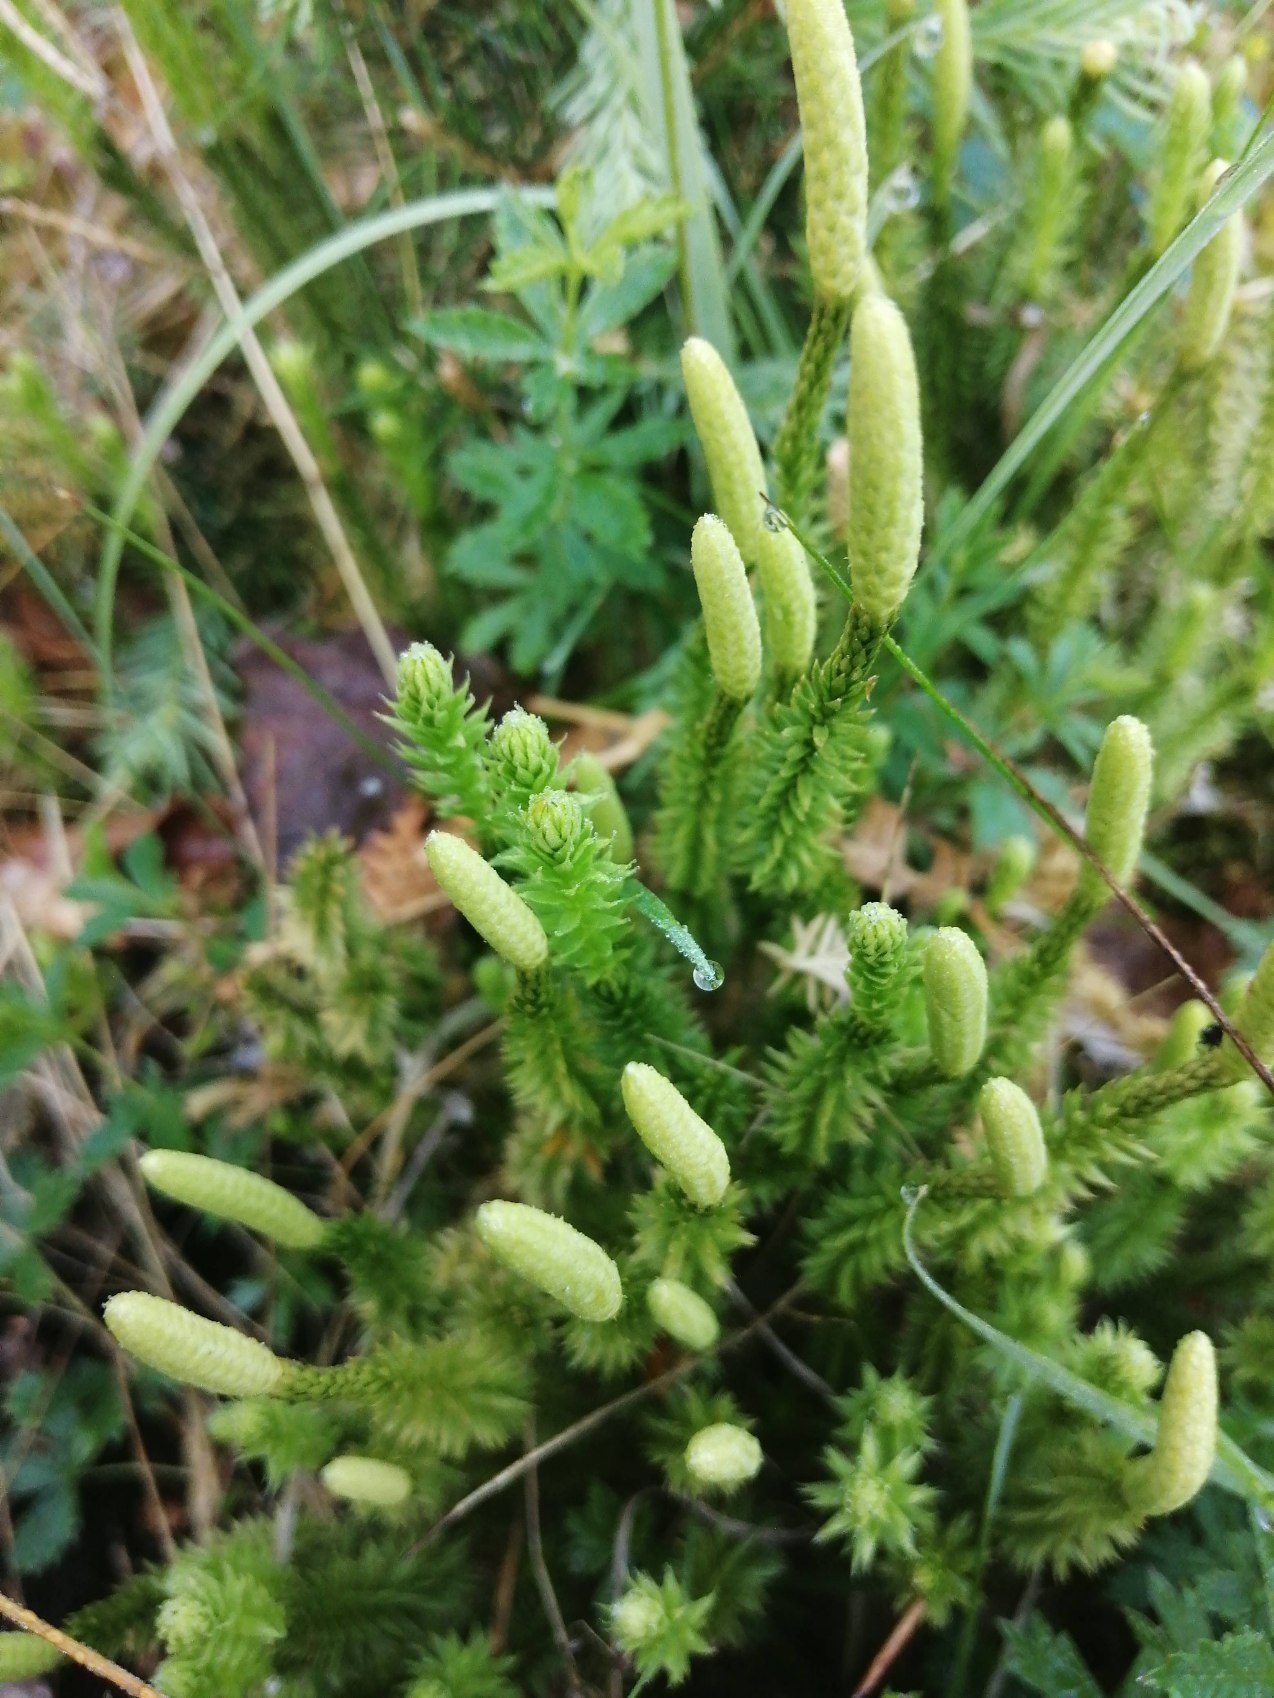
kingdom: Plantae
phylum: Tracheophyta
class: Lycopodiopsida
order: Lycopodiales
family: Lycopodiaceae
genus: Spinulum
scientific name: Spinulum annotinum
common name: Femradet ulvefod
